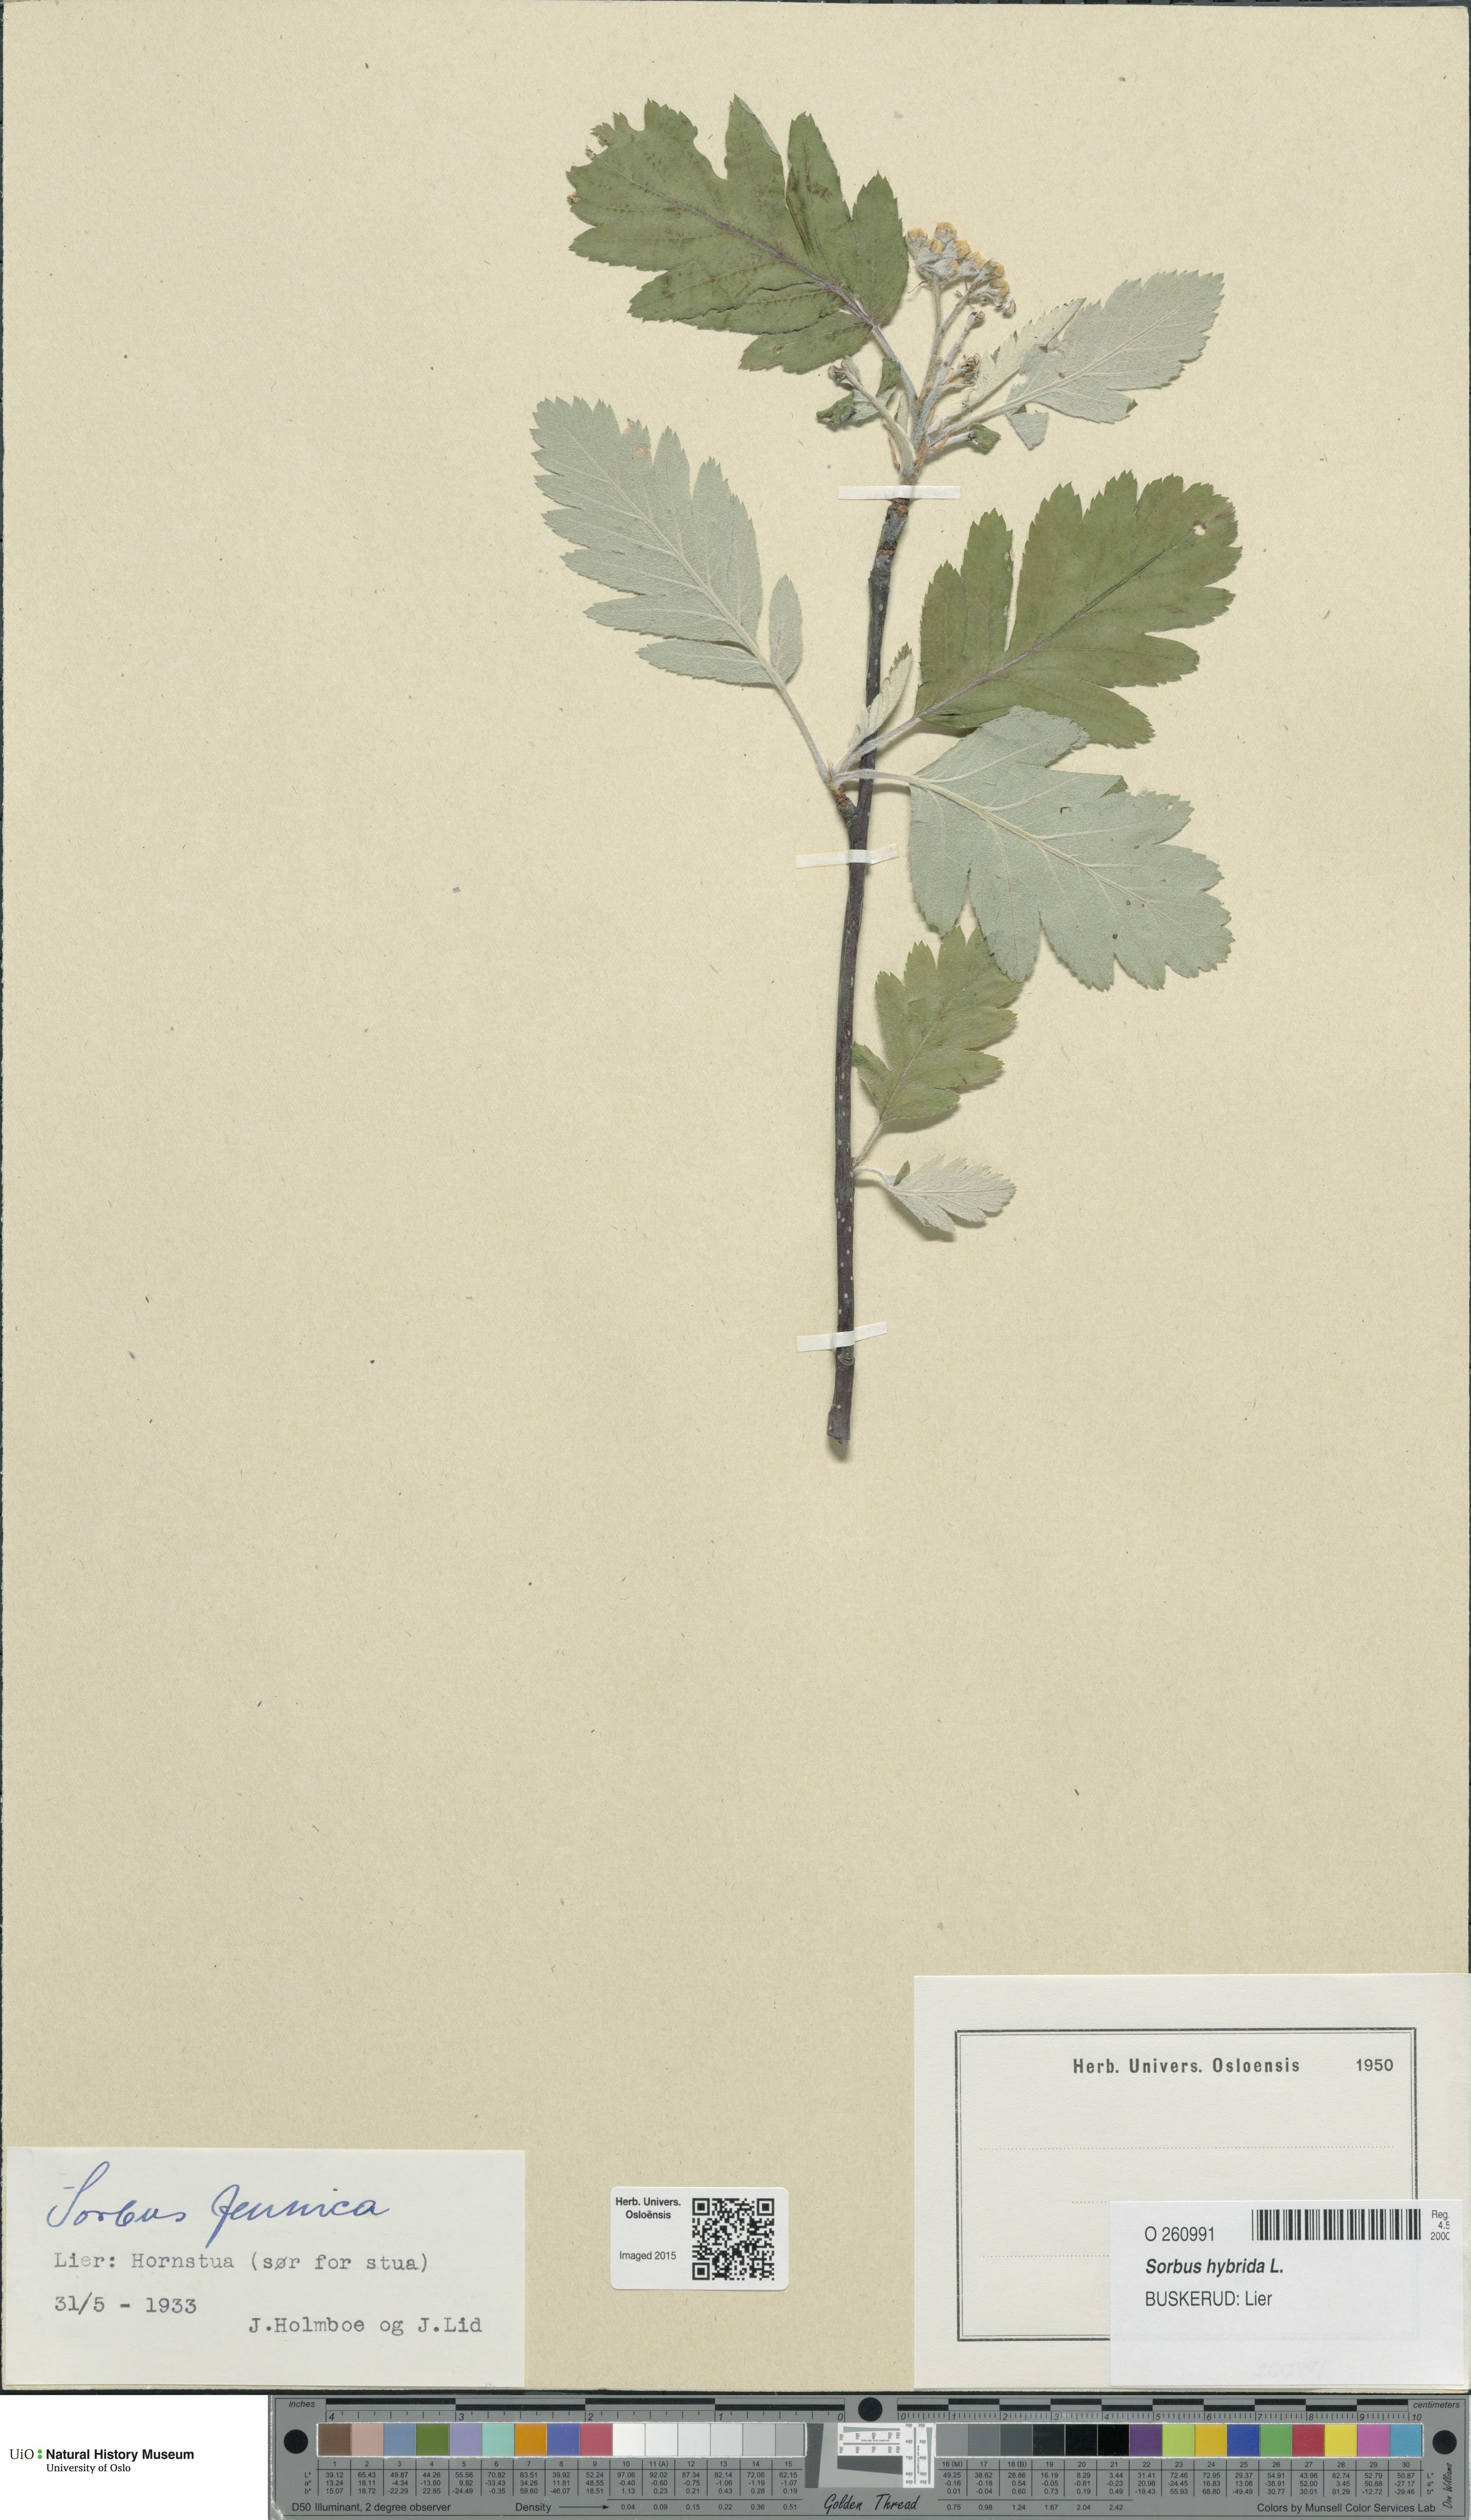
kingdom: Plantae
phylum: Tracheophyta
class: Magnoliopsida
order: Rosales
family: Rosaceae
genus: Hedlundia
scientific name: Hedlundia hybrida
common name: Swedish service-tree
